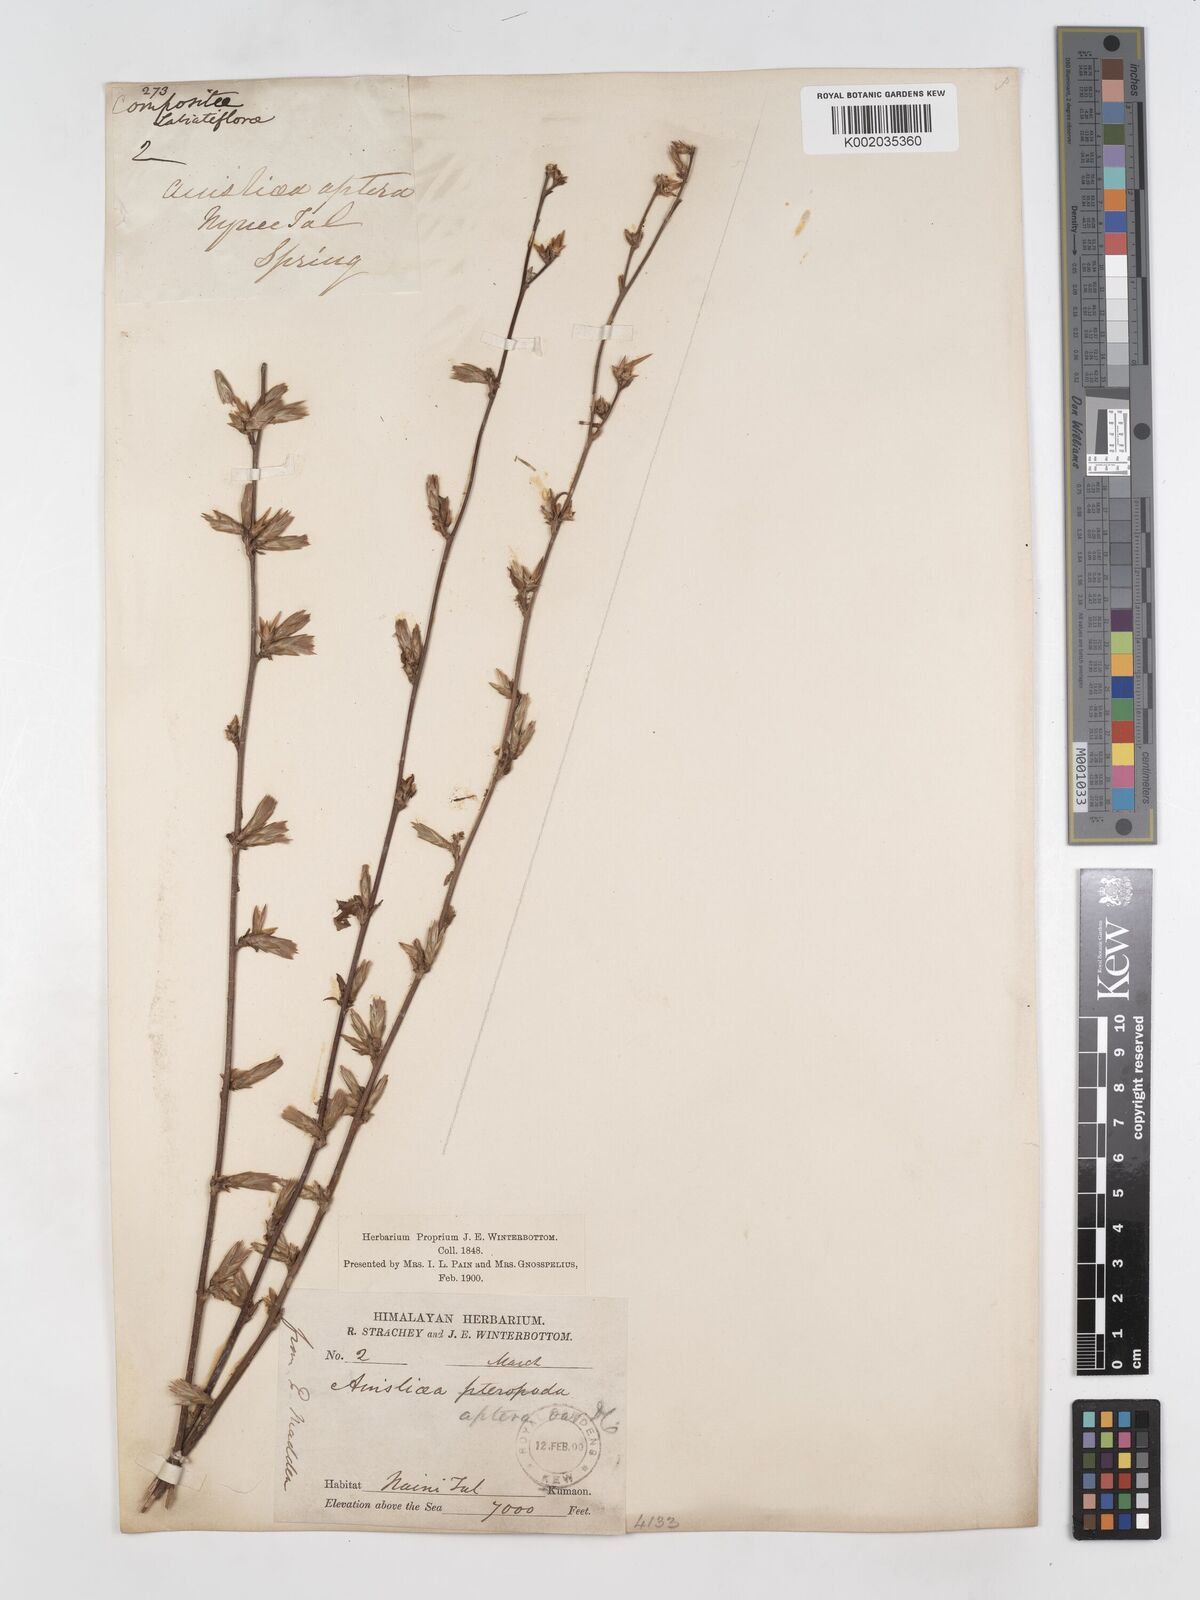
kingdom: Plantae
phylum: Tracheophyta
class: Magnoliopsida
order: Asterales
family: Asteraceae
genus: Ainsliaea
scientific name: Ainsliaea aptera
